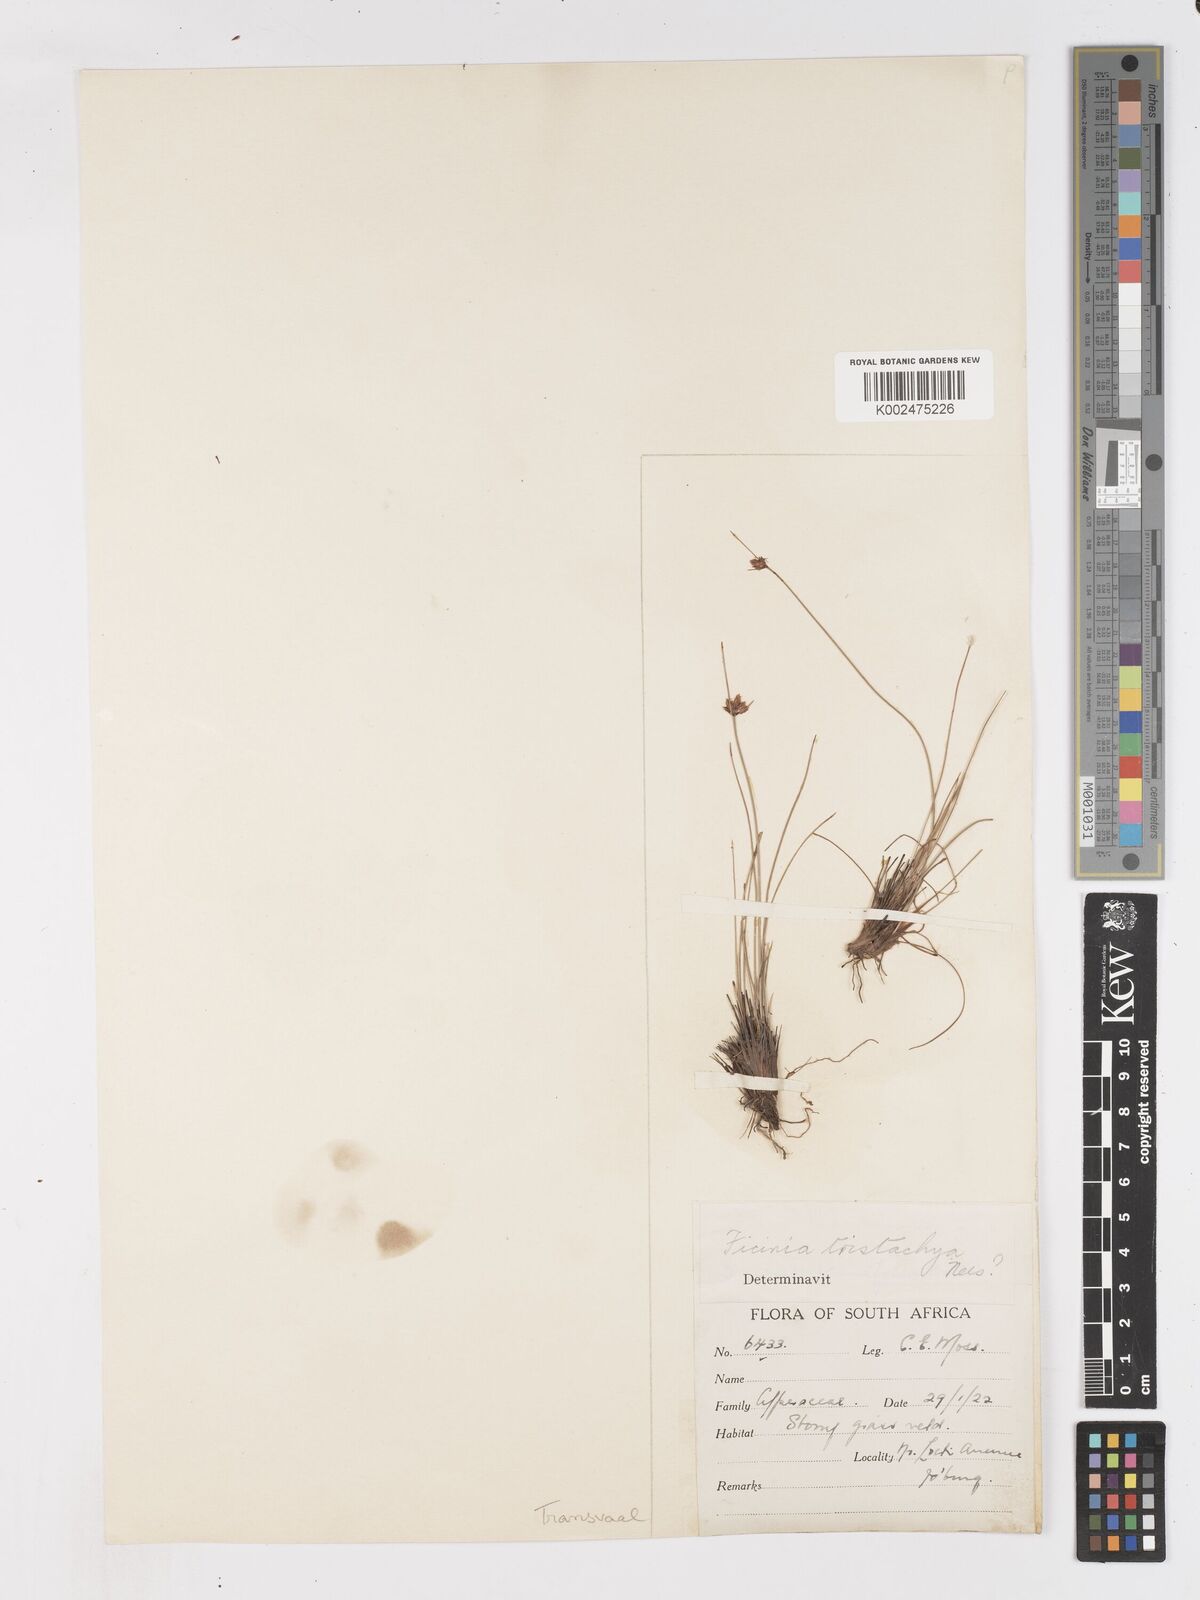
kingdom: Plantae
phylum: Tracheophyta
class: Liliopsida
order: Poales
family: Cyperaceae
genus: Ficinia
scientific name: Ficinia tristachya
